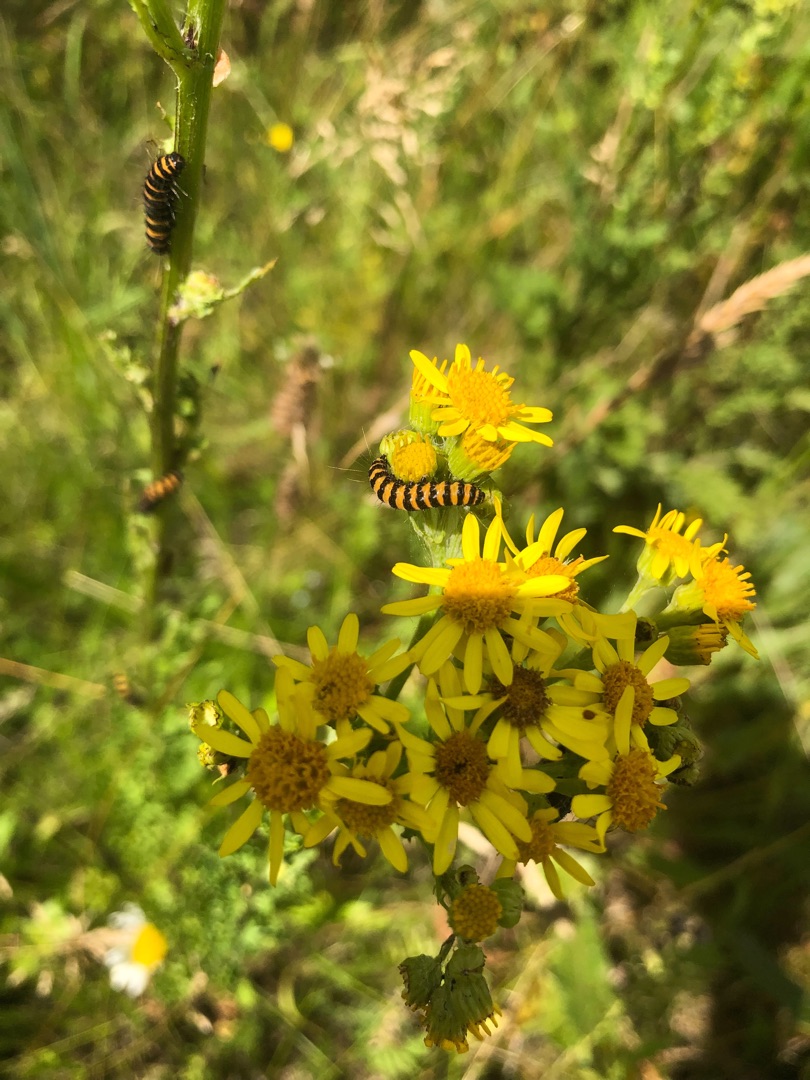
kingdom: Animalia
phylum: Arthropoda
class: Insecta
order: Lepidoptera
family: Erebidae
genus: Tyria
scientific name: Tyria jacobaeae
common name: Blodplet
